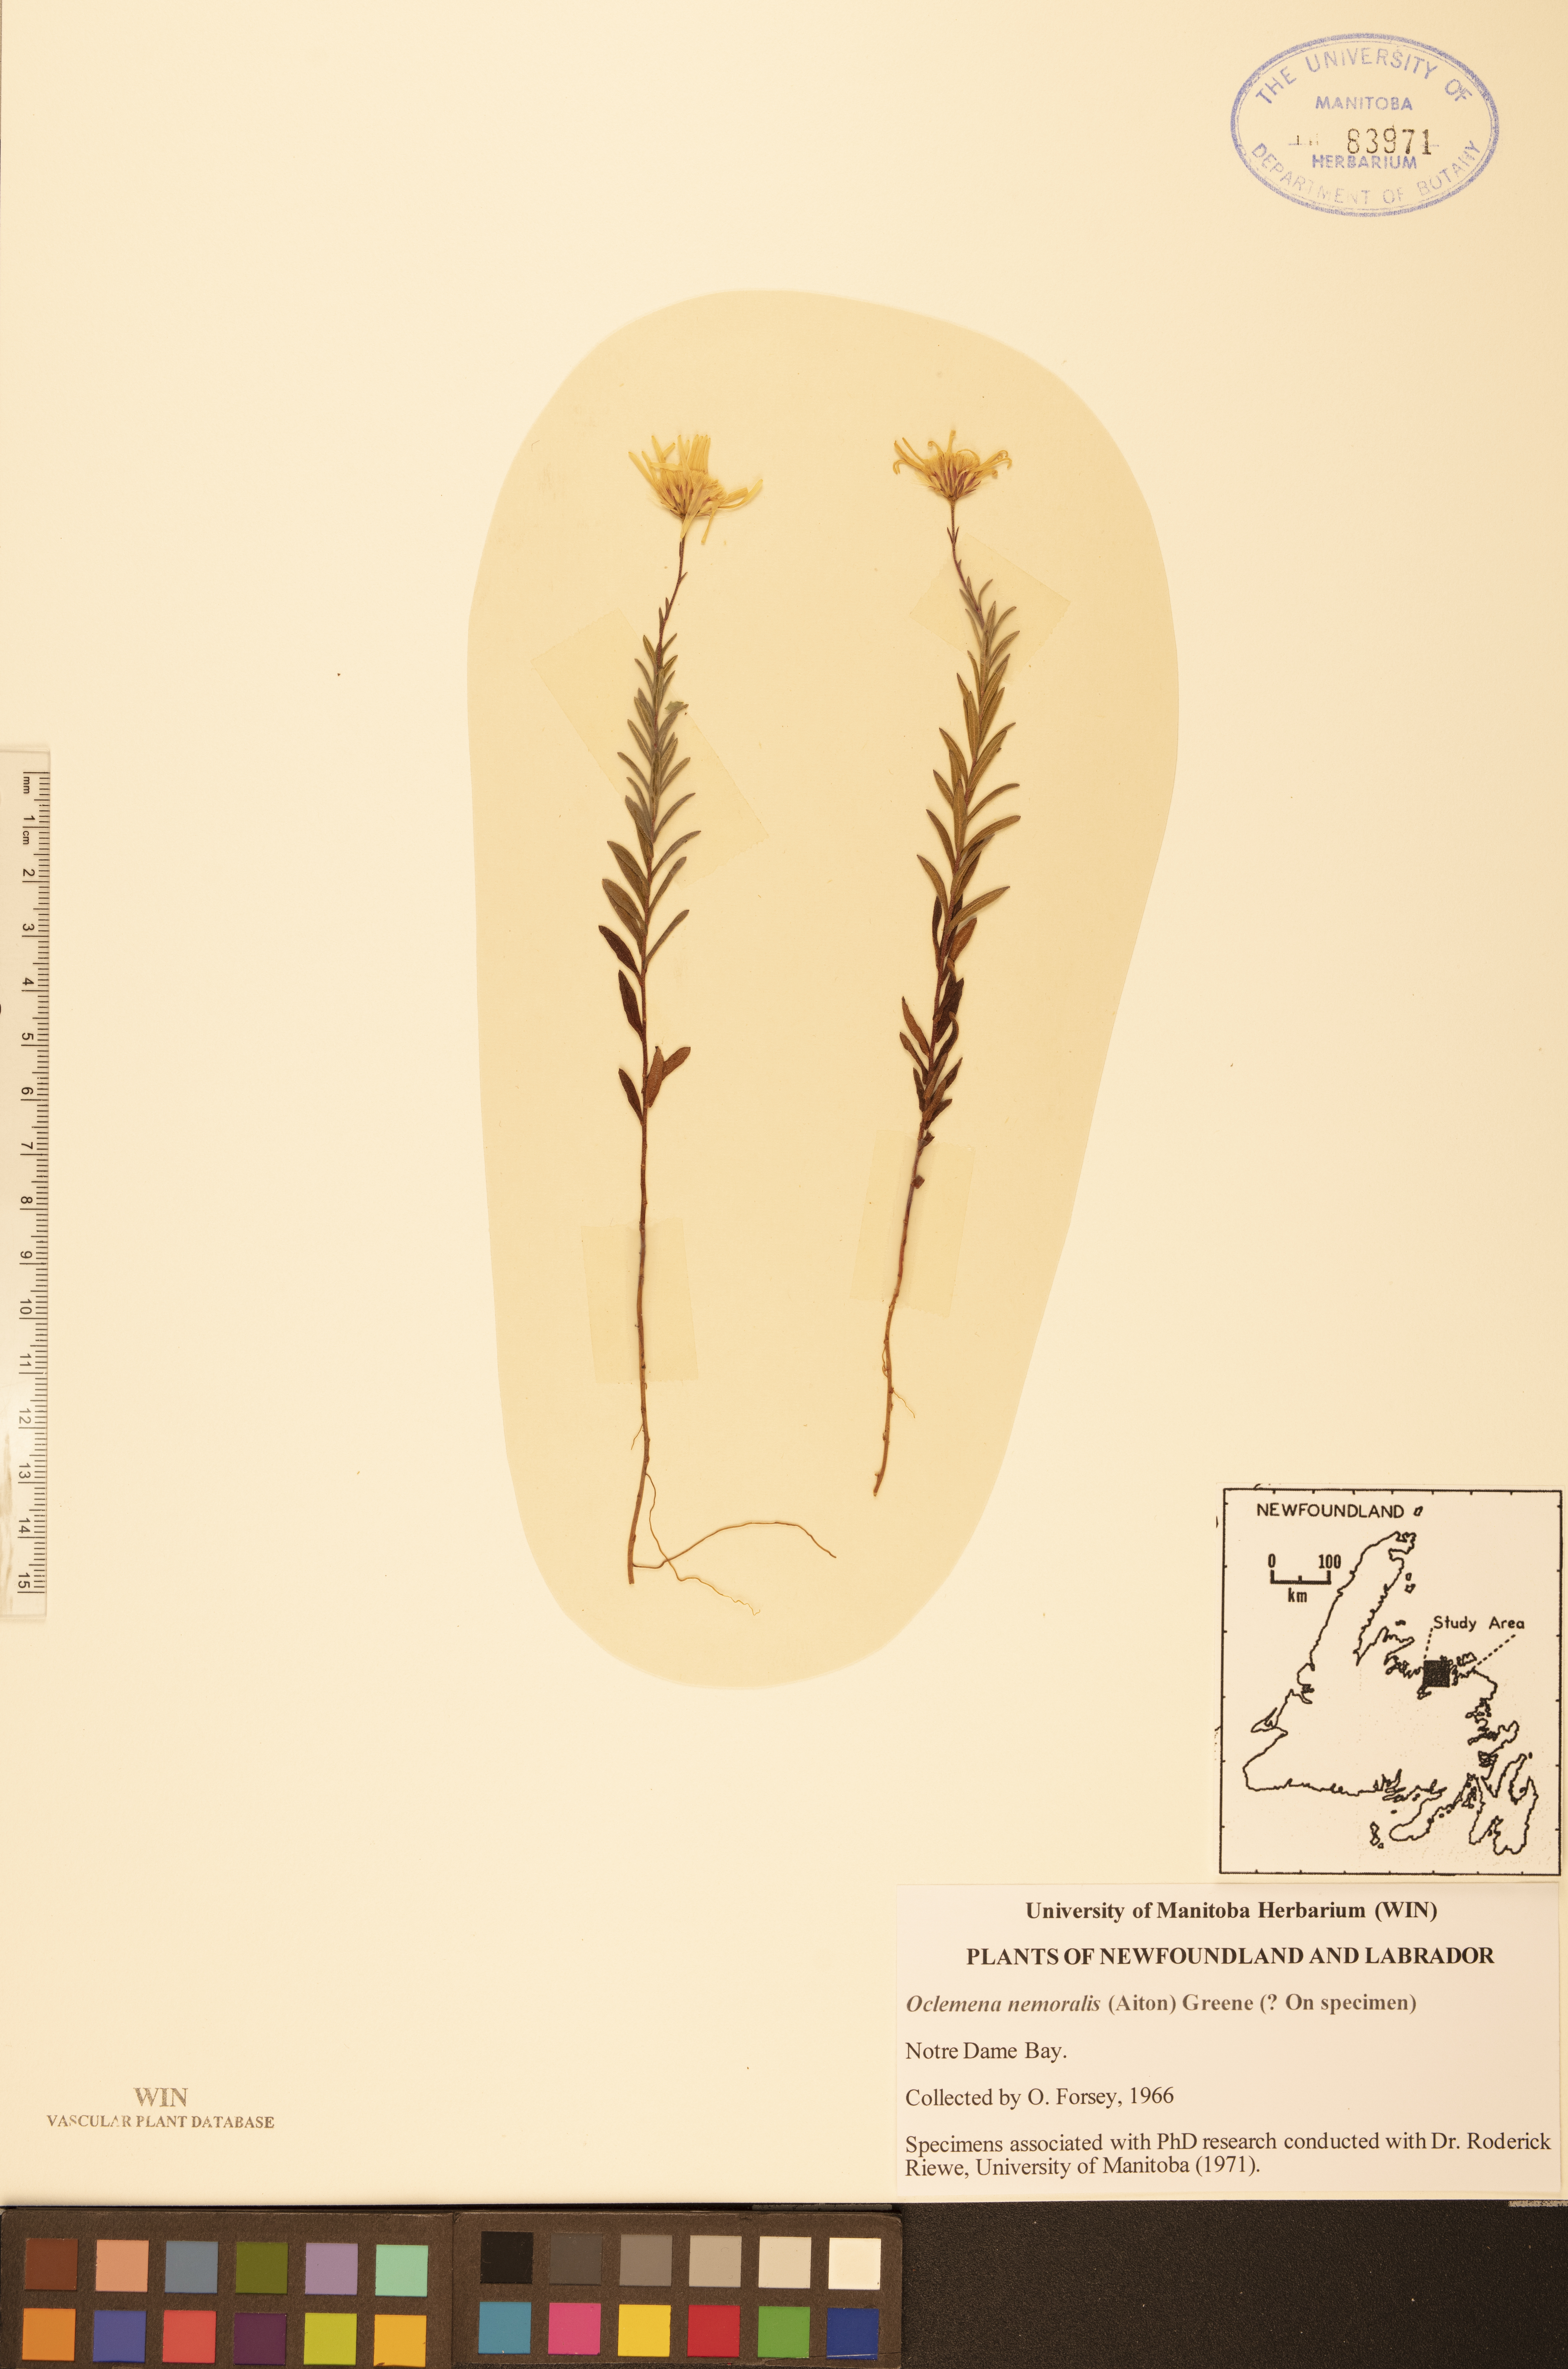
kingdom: Plantae
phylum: Tracheophyta
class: Magnoliopsida
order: Asterales
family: Asteraceae
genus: Oclemena
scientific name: Oclemena nemoralis
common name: Bog aster
